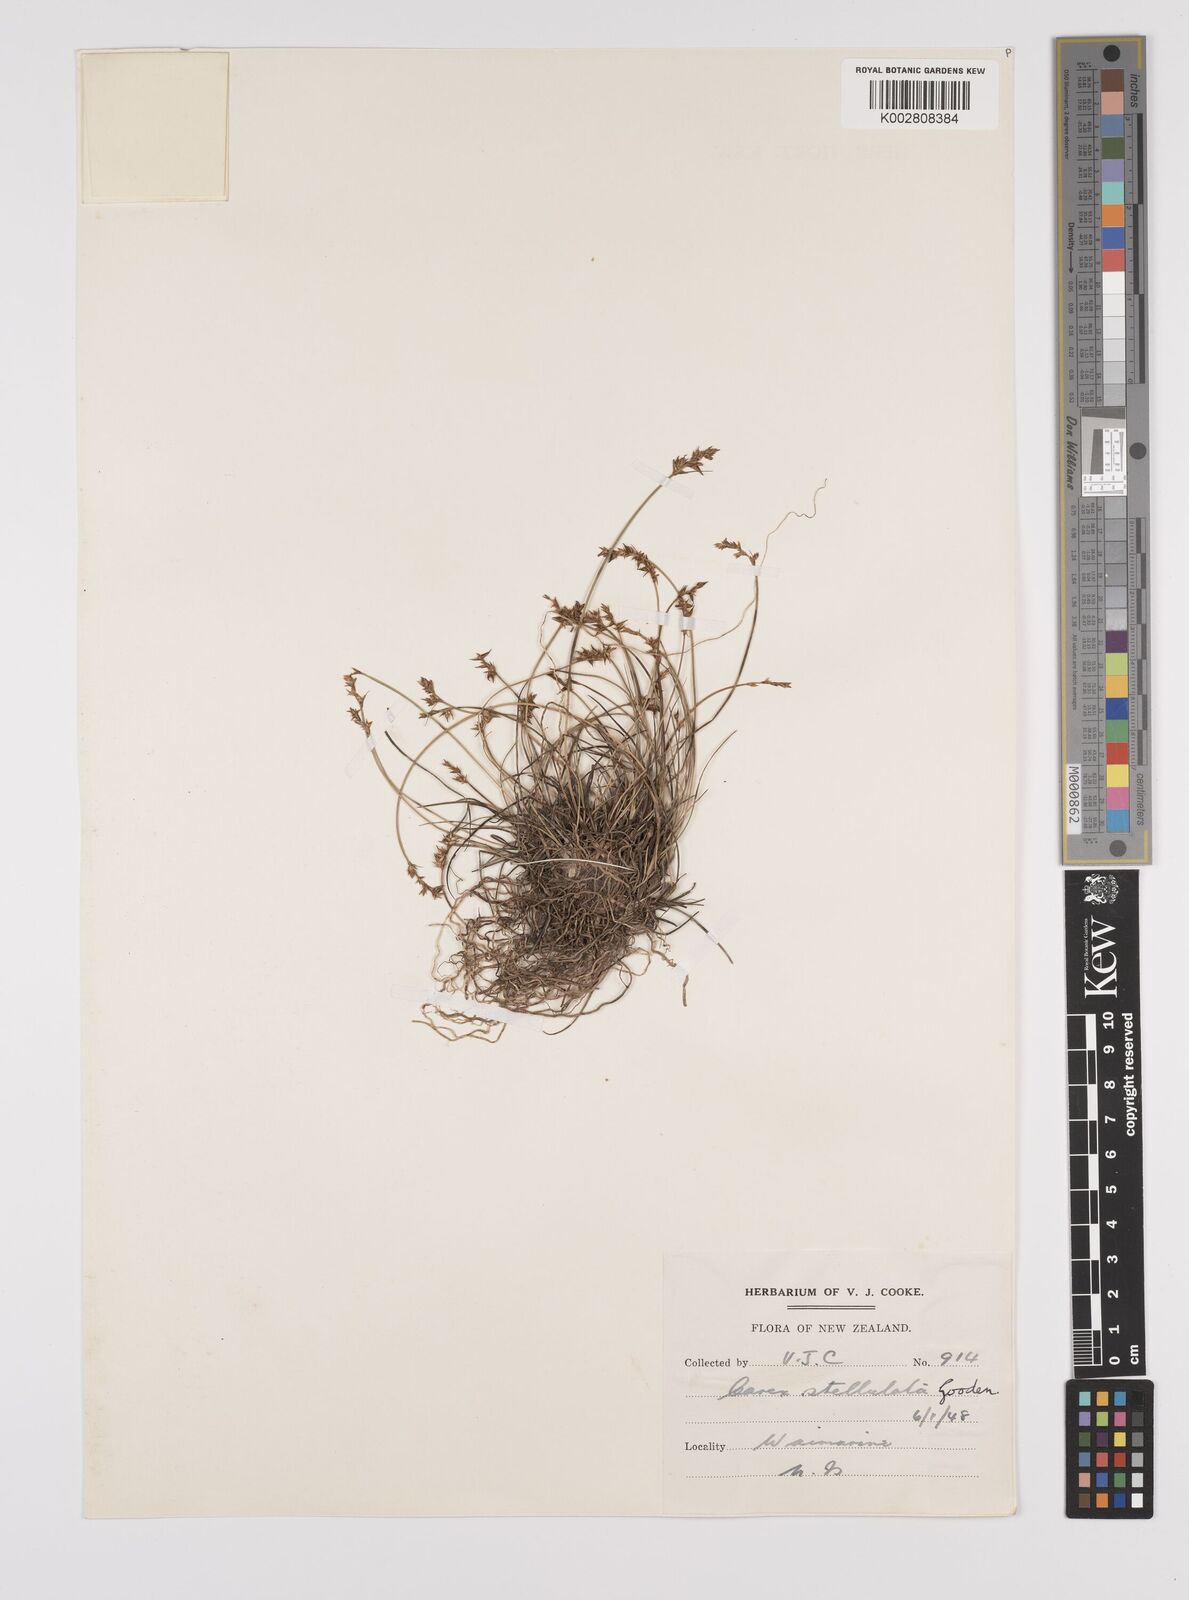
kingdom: Plantae
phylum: Tracheophyta
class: Liliopsida
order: Poales
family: Cyperaceae
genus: Carex
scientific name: Carex echinata
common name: Star sedge
